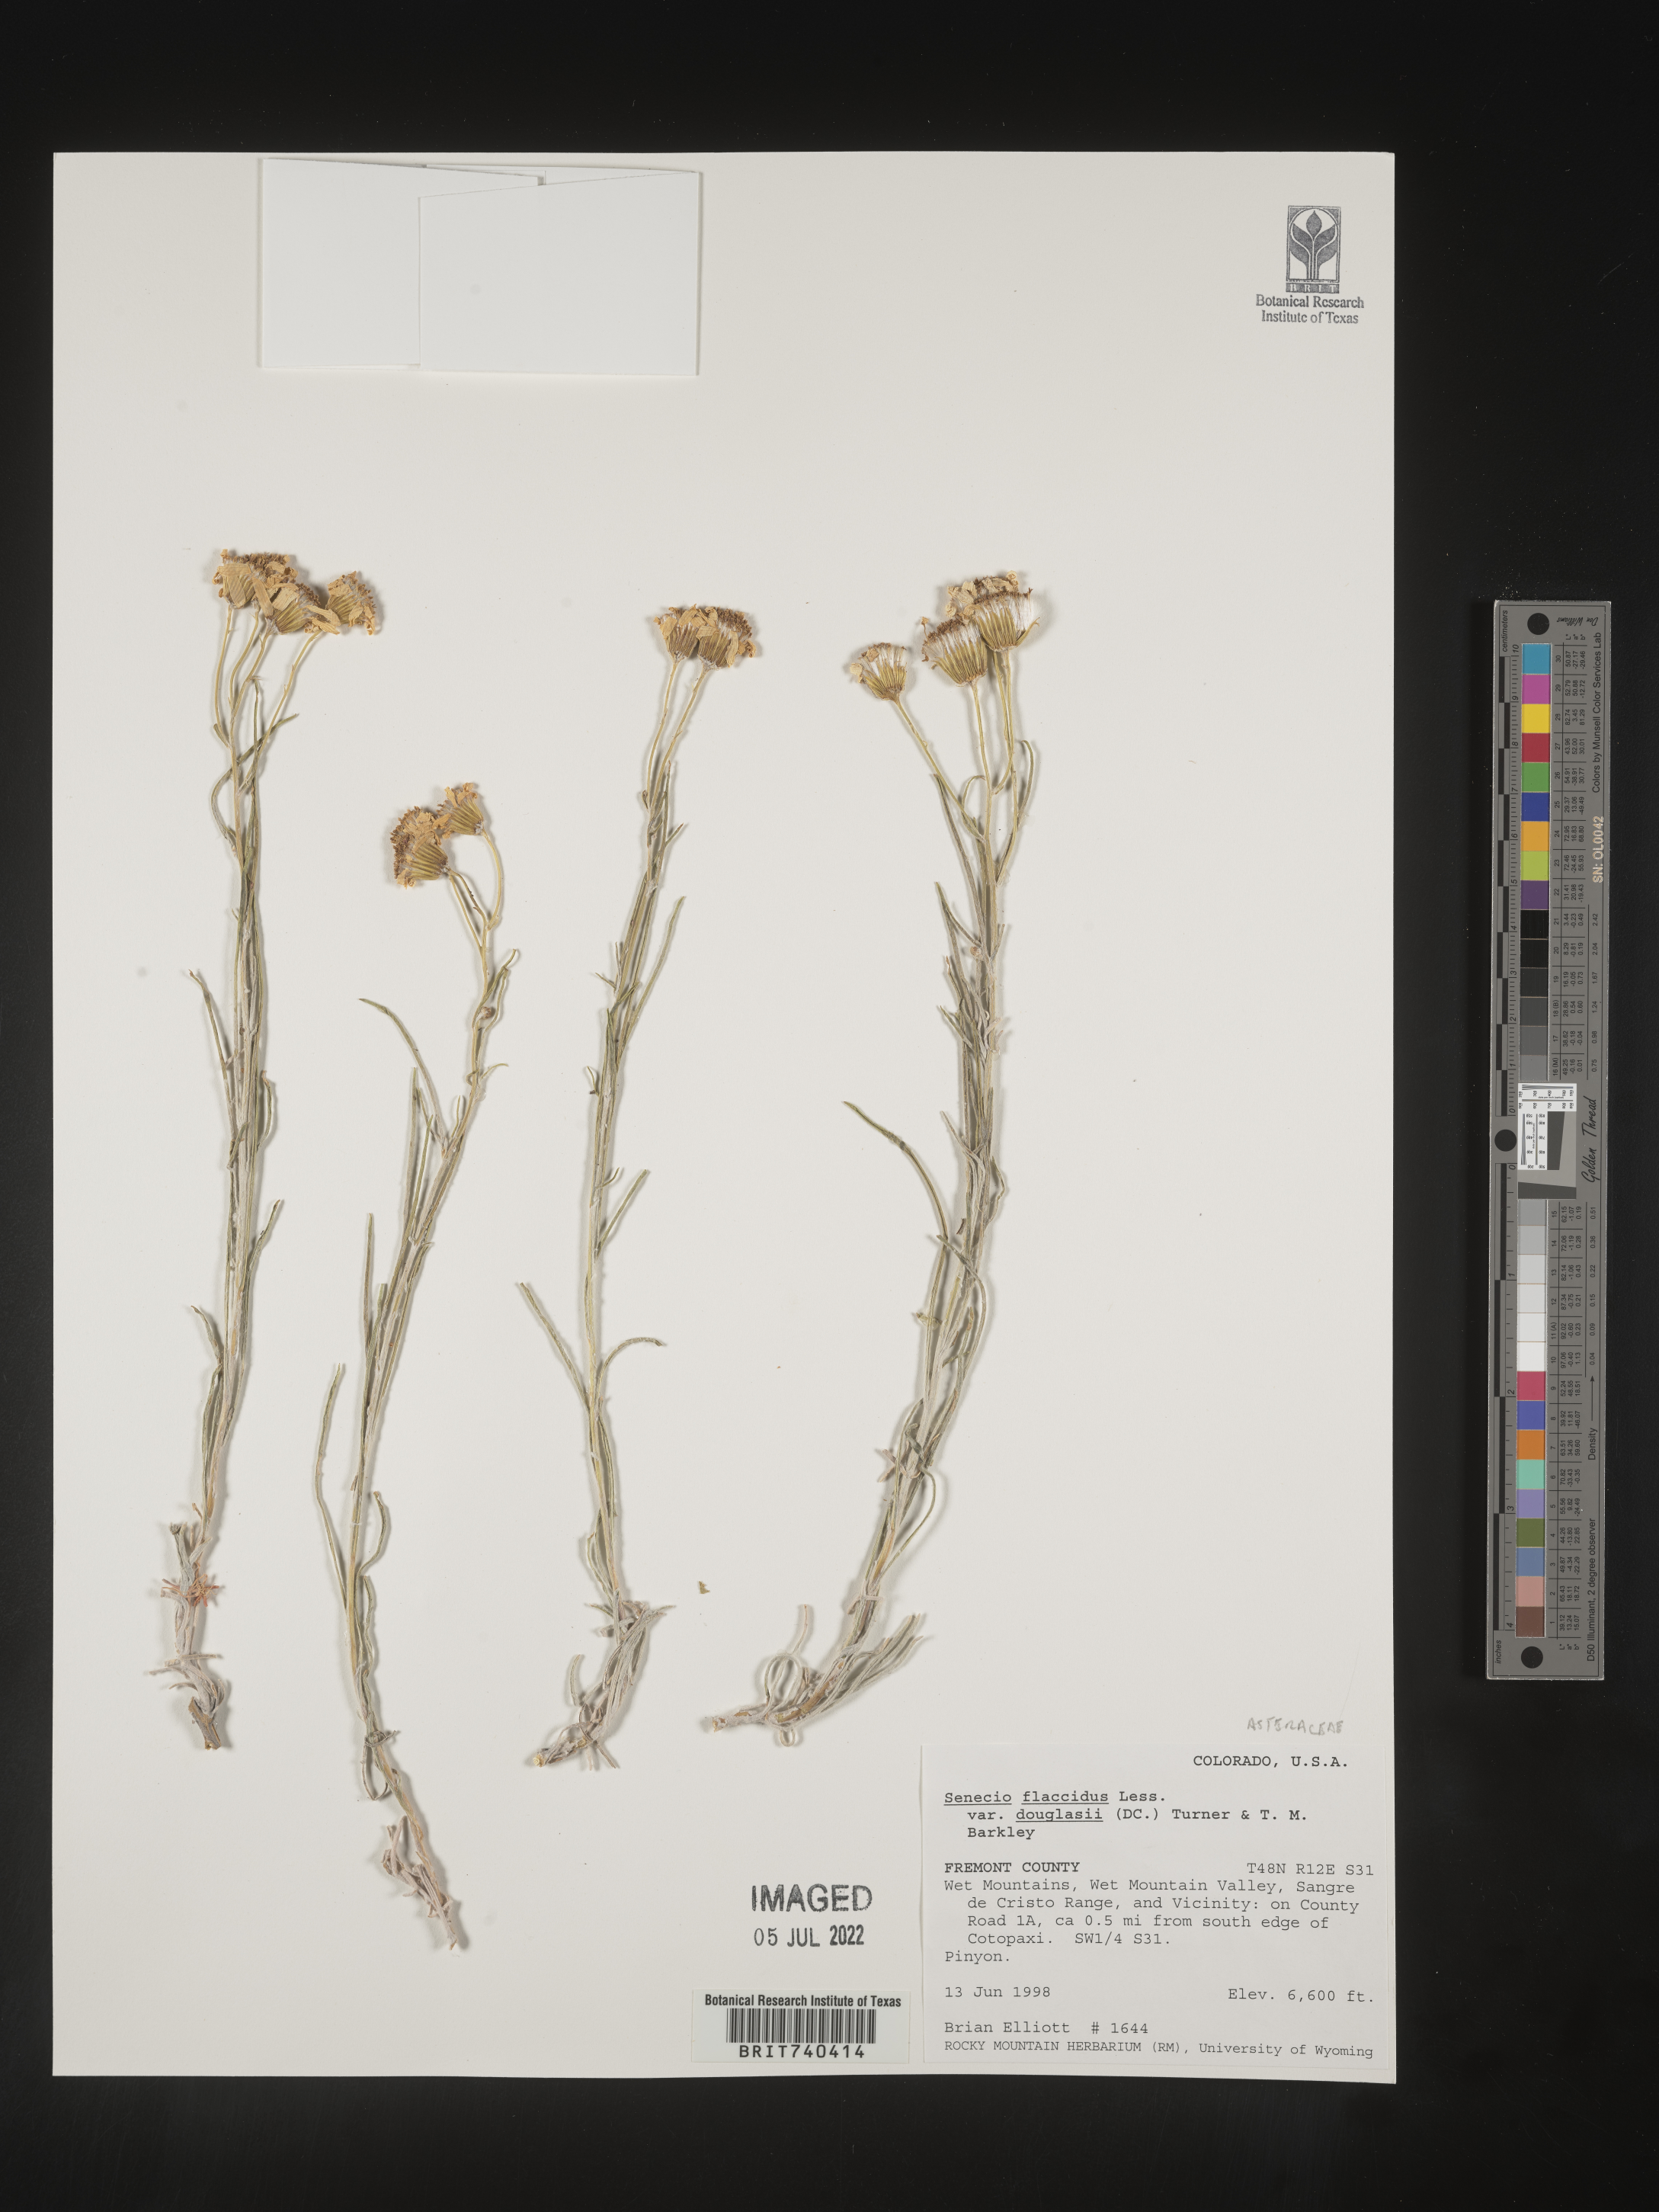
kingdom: Plantae
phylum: Tracheophyta
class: Magnoliopsida
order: Asterales
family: Asteraceae
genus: Senecio
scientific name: Senecio flaccidus
